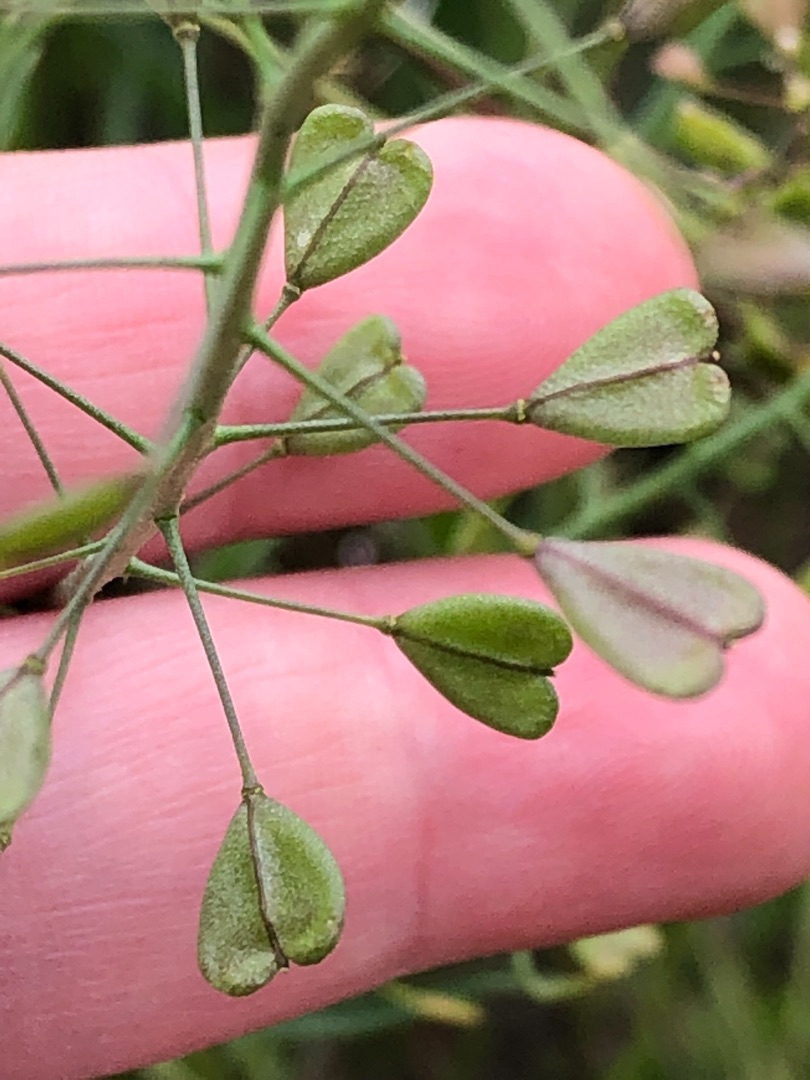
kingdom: Plantae
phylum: Tracheophyta
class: Magnoliopsida
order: Brassicales
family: Brassicaceae
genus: Capsella
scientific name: Capsella bursa-pastoris
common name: Hyrdetaske
